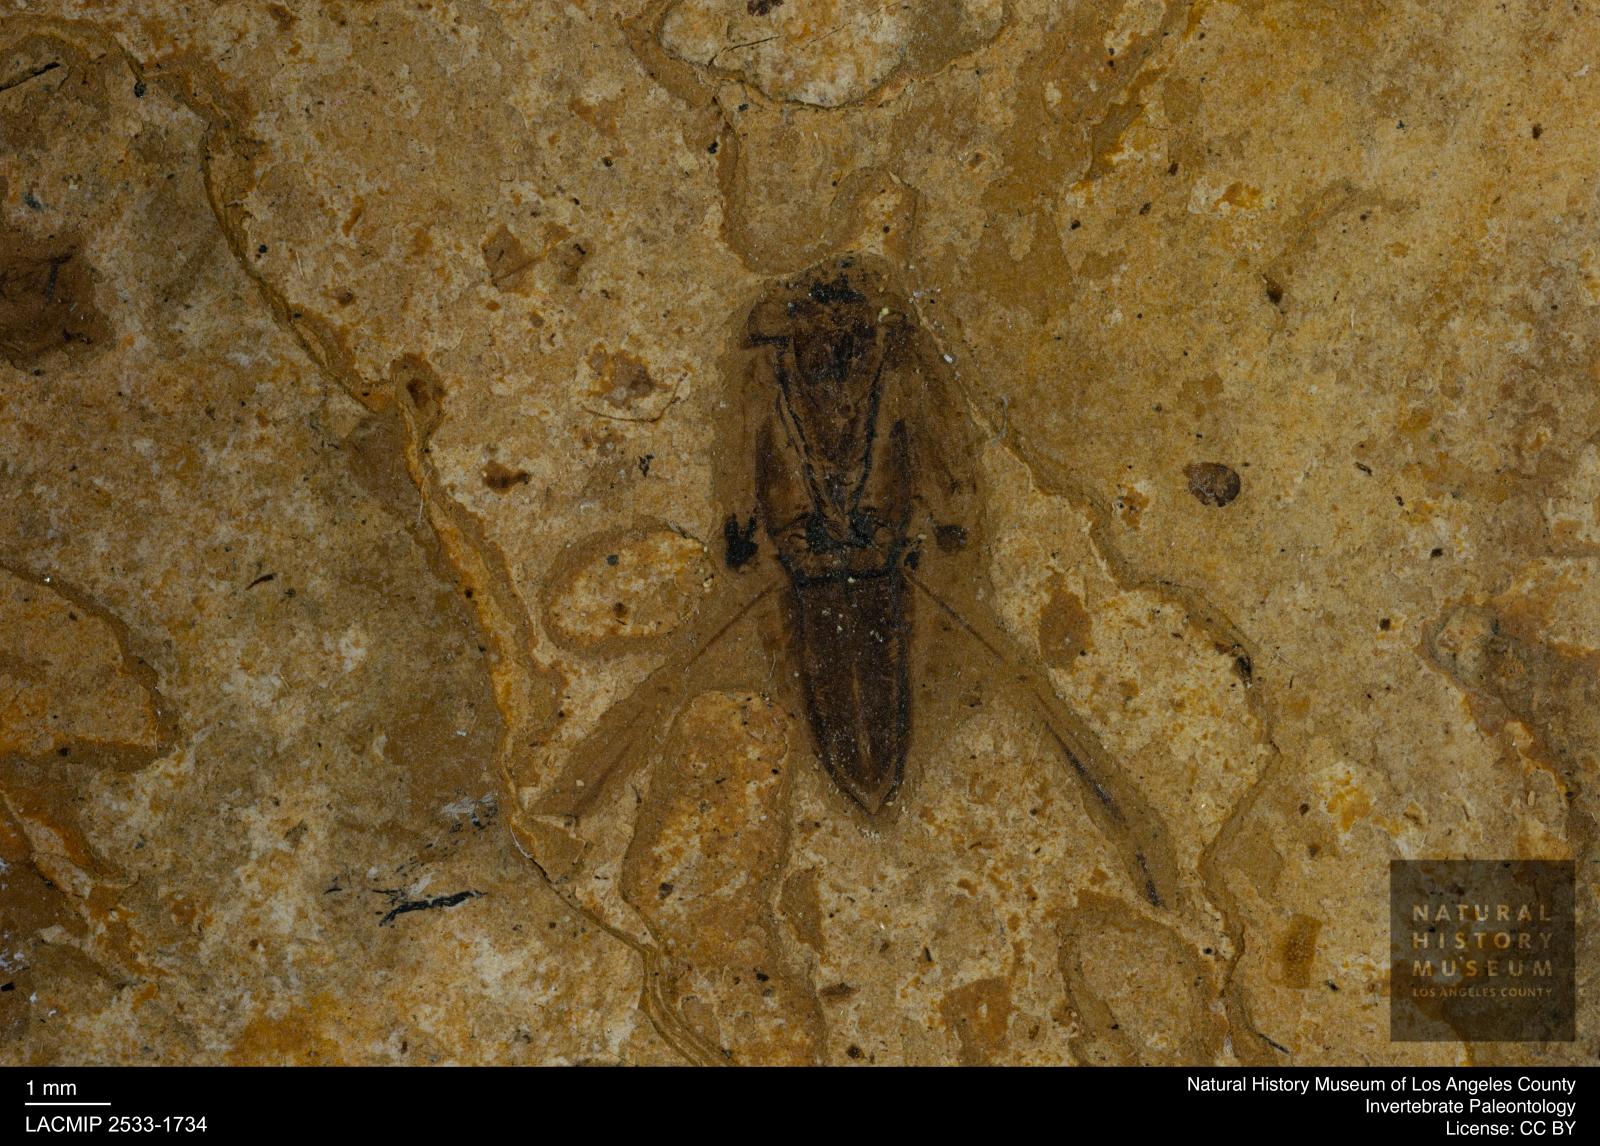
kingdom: Animalia
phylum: Arthropoda
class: Insecta
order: Hemiptera
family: Notonectidae
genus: Notonecta
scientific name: Notonecta
